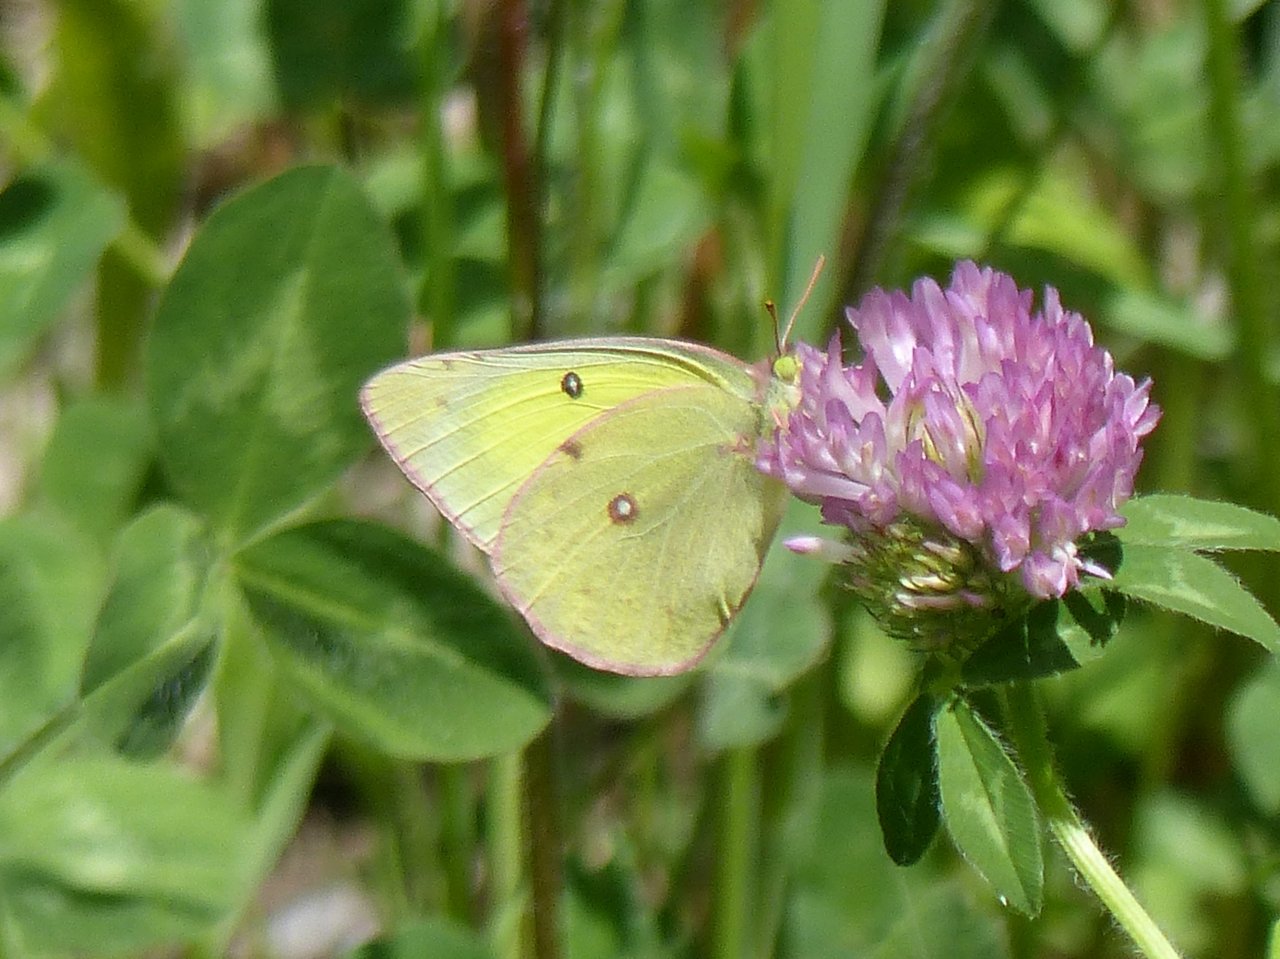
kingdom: Animalia
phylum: Arthropoda
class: Insecta
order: Lepidoptera
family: Pieridae
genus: Colias
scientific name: Colias philodice
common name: Clouded Sulphur
